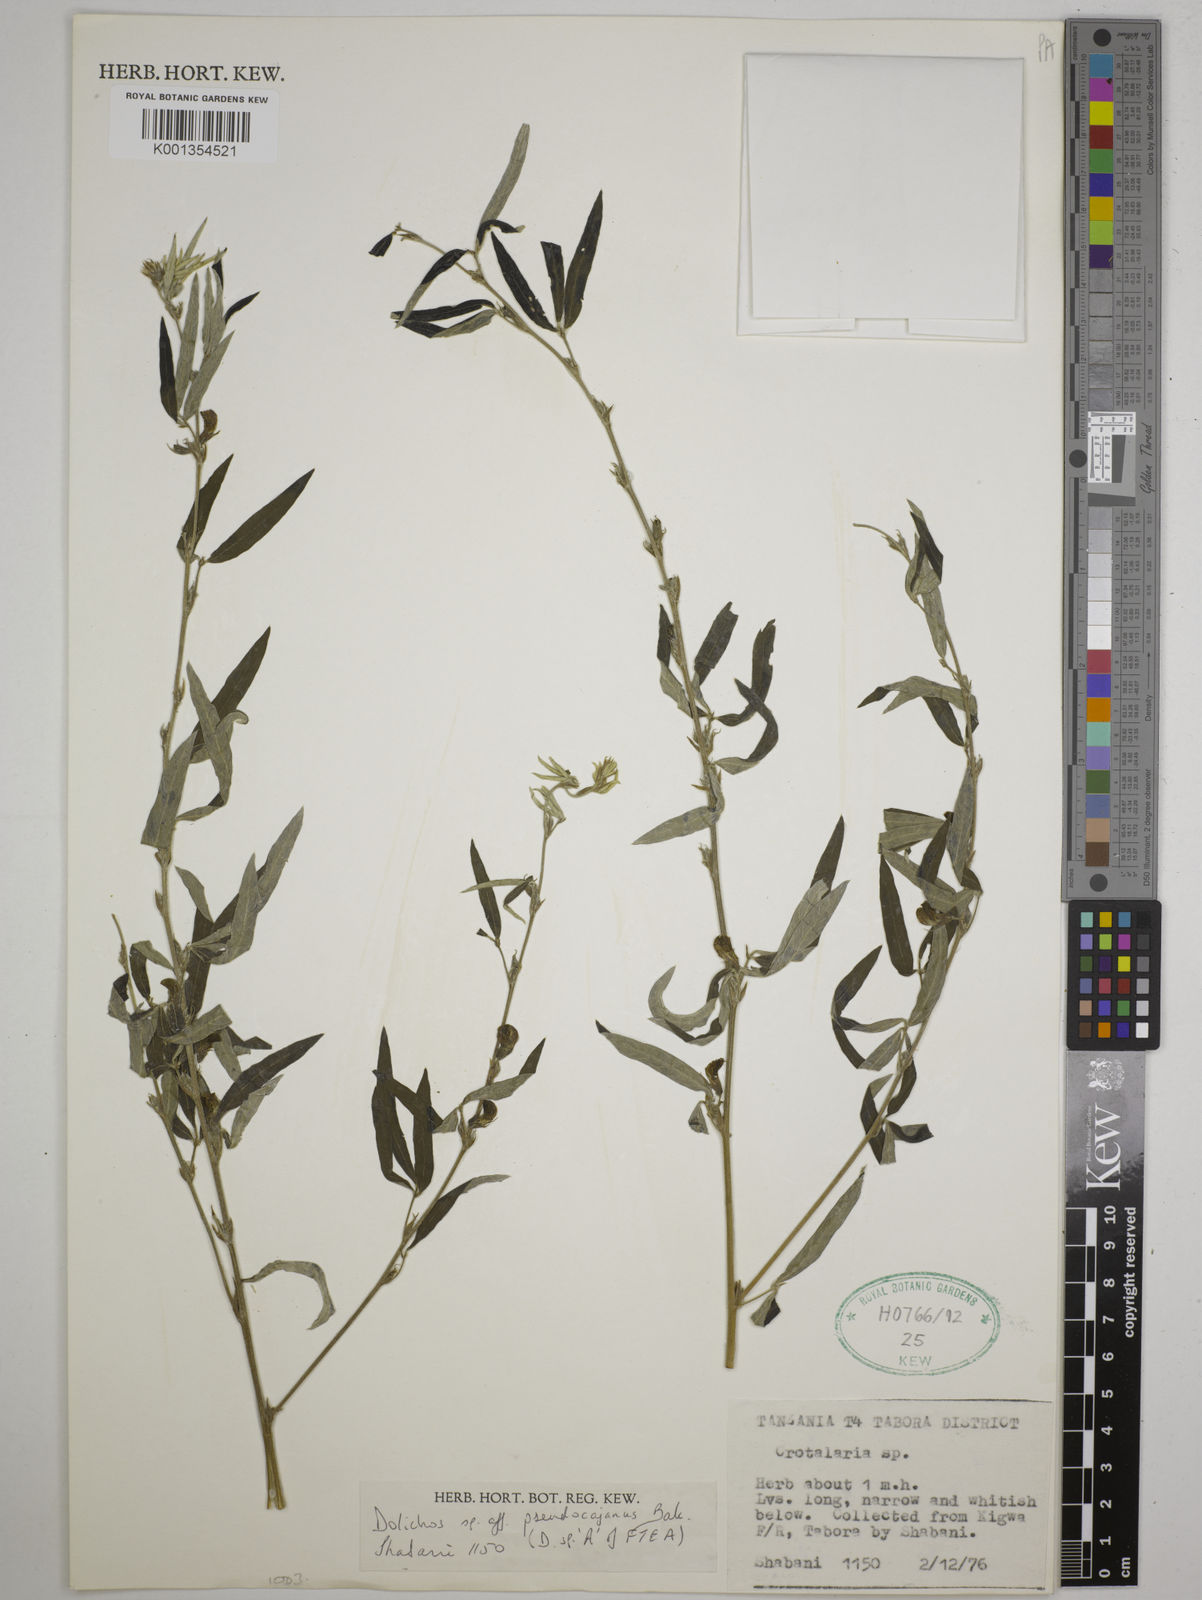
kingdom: Plantae
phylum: Tracheophyta
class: Magnoliopsida
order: Fabales
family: Fabaceae
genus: Dolichos
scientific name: Dolichos
